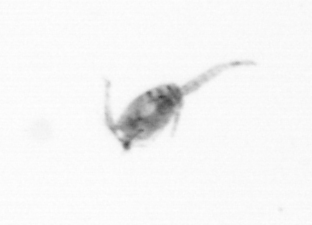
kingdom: Animalia
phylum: Arthropoda
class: Copepoda
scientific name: Copepoda
